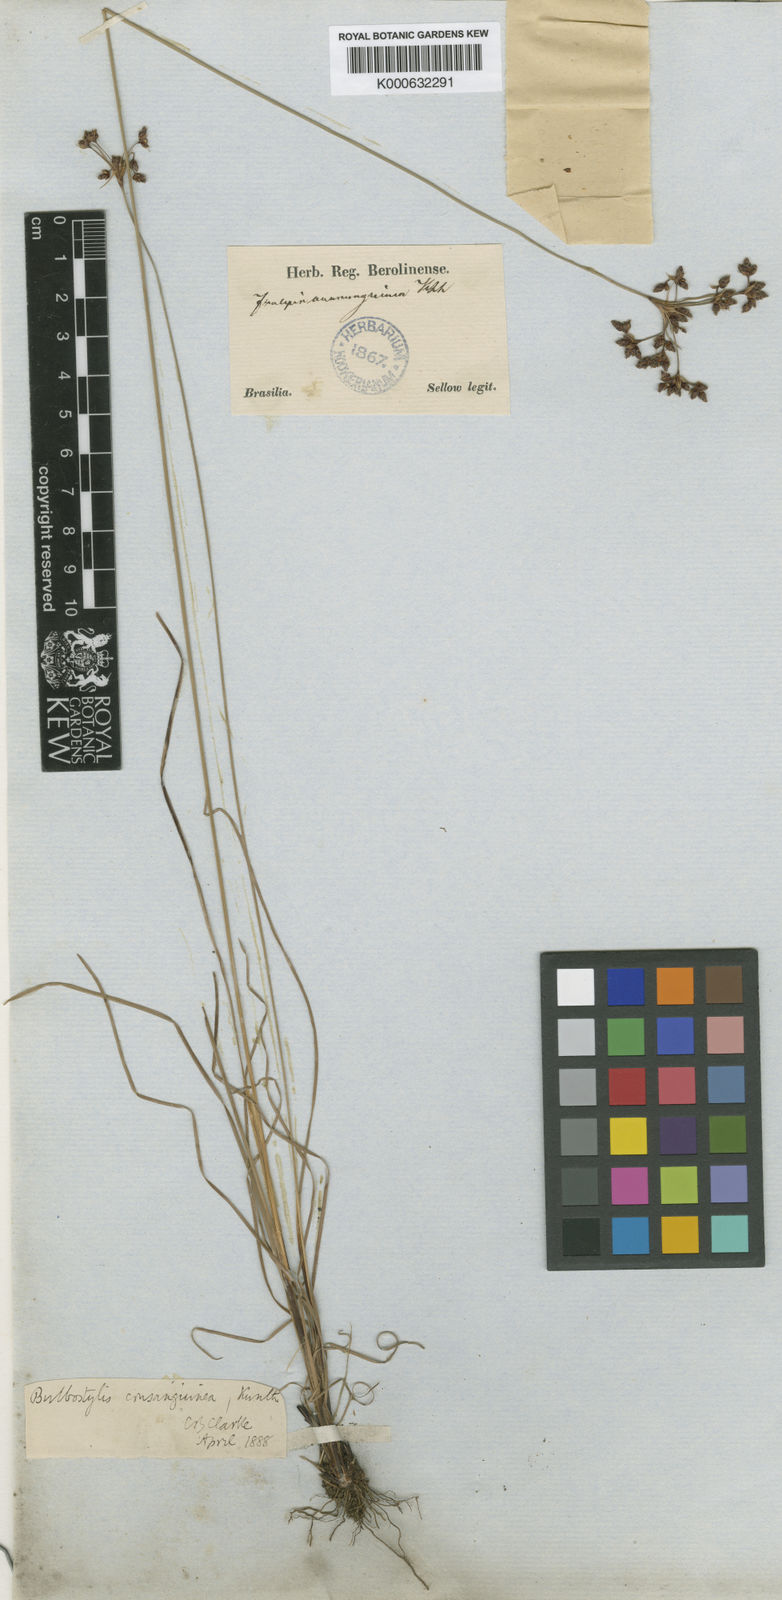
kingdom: Plantae
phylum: Tracheophyta
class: Liliopsida
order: Poales
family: Cyperaceae
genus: Bulbostylis
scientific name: Bulbostylis consanguinea
